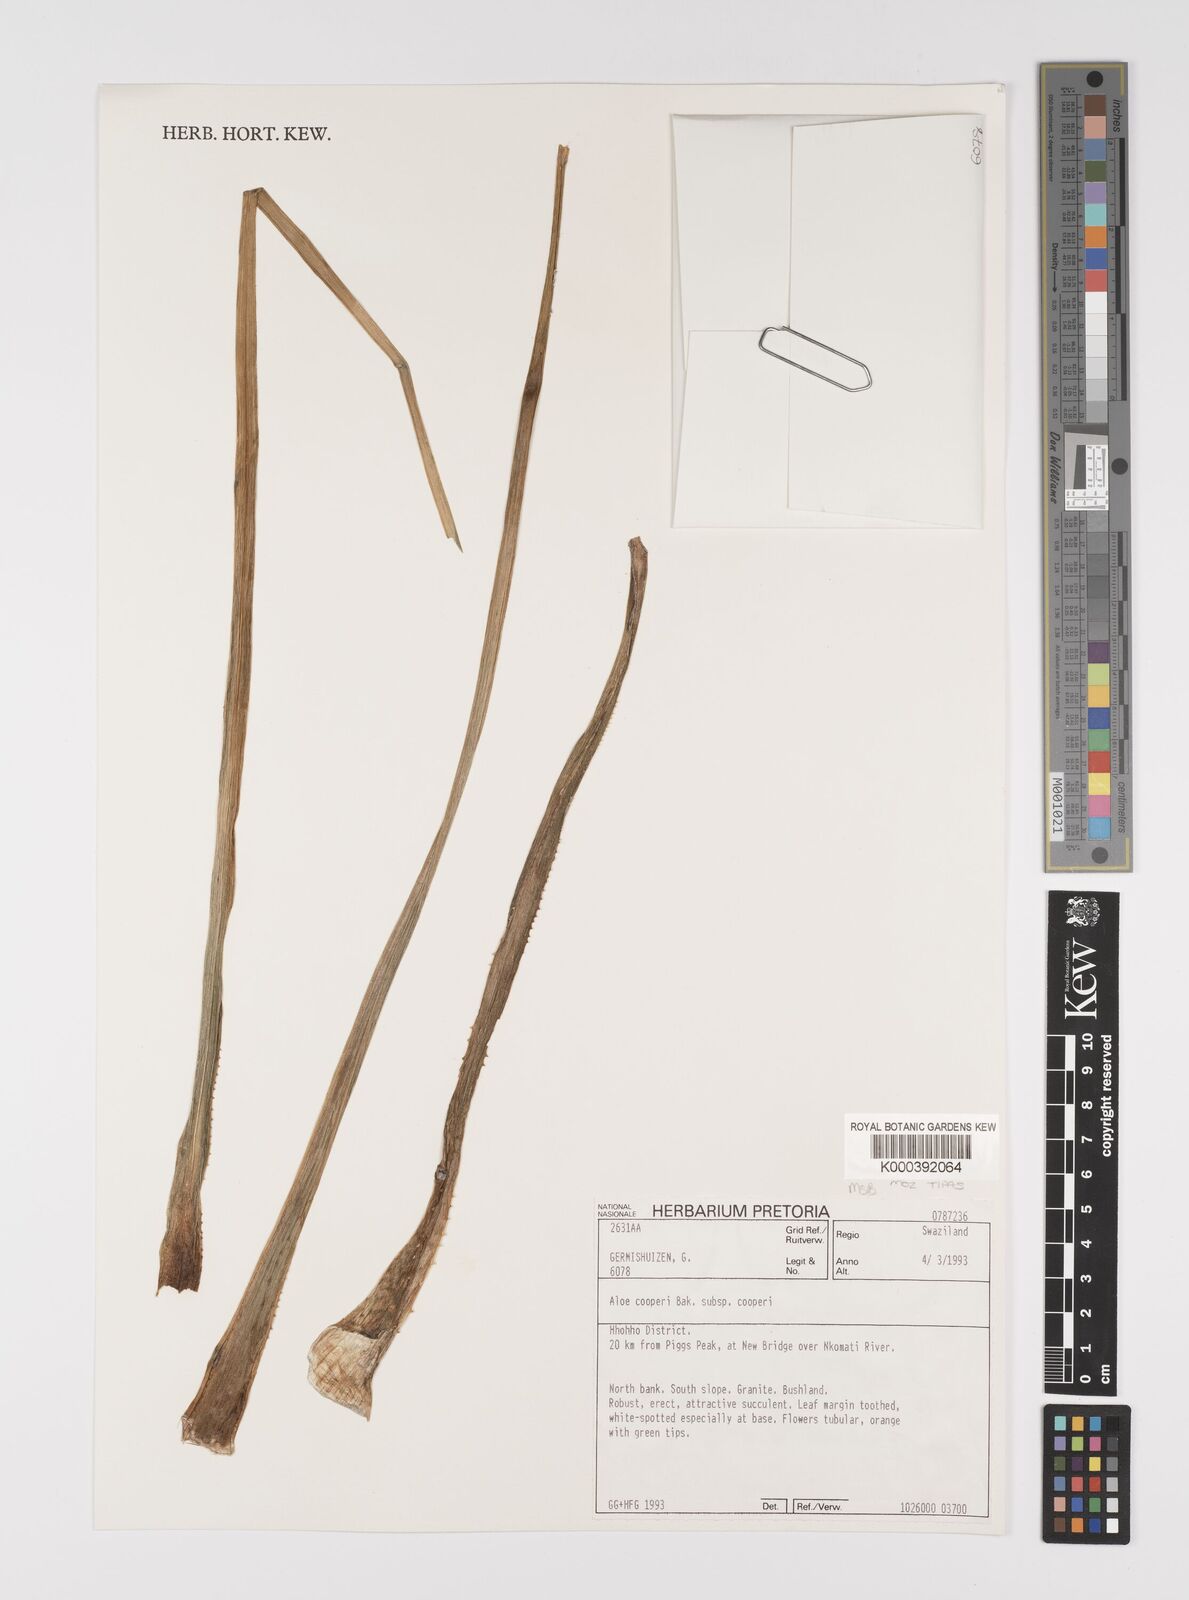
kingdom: Plantae
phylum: Tracheophyta
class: Liliopsida
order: Asparagales
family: Asphodelaceae
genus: Aloe
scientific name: Aloe cooperi
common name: Cooper's aloe
